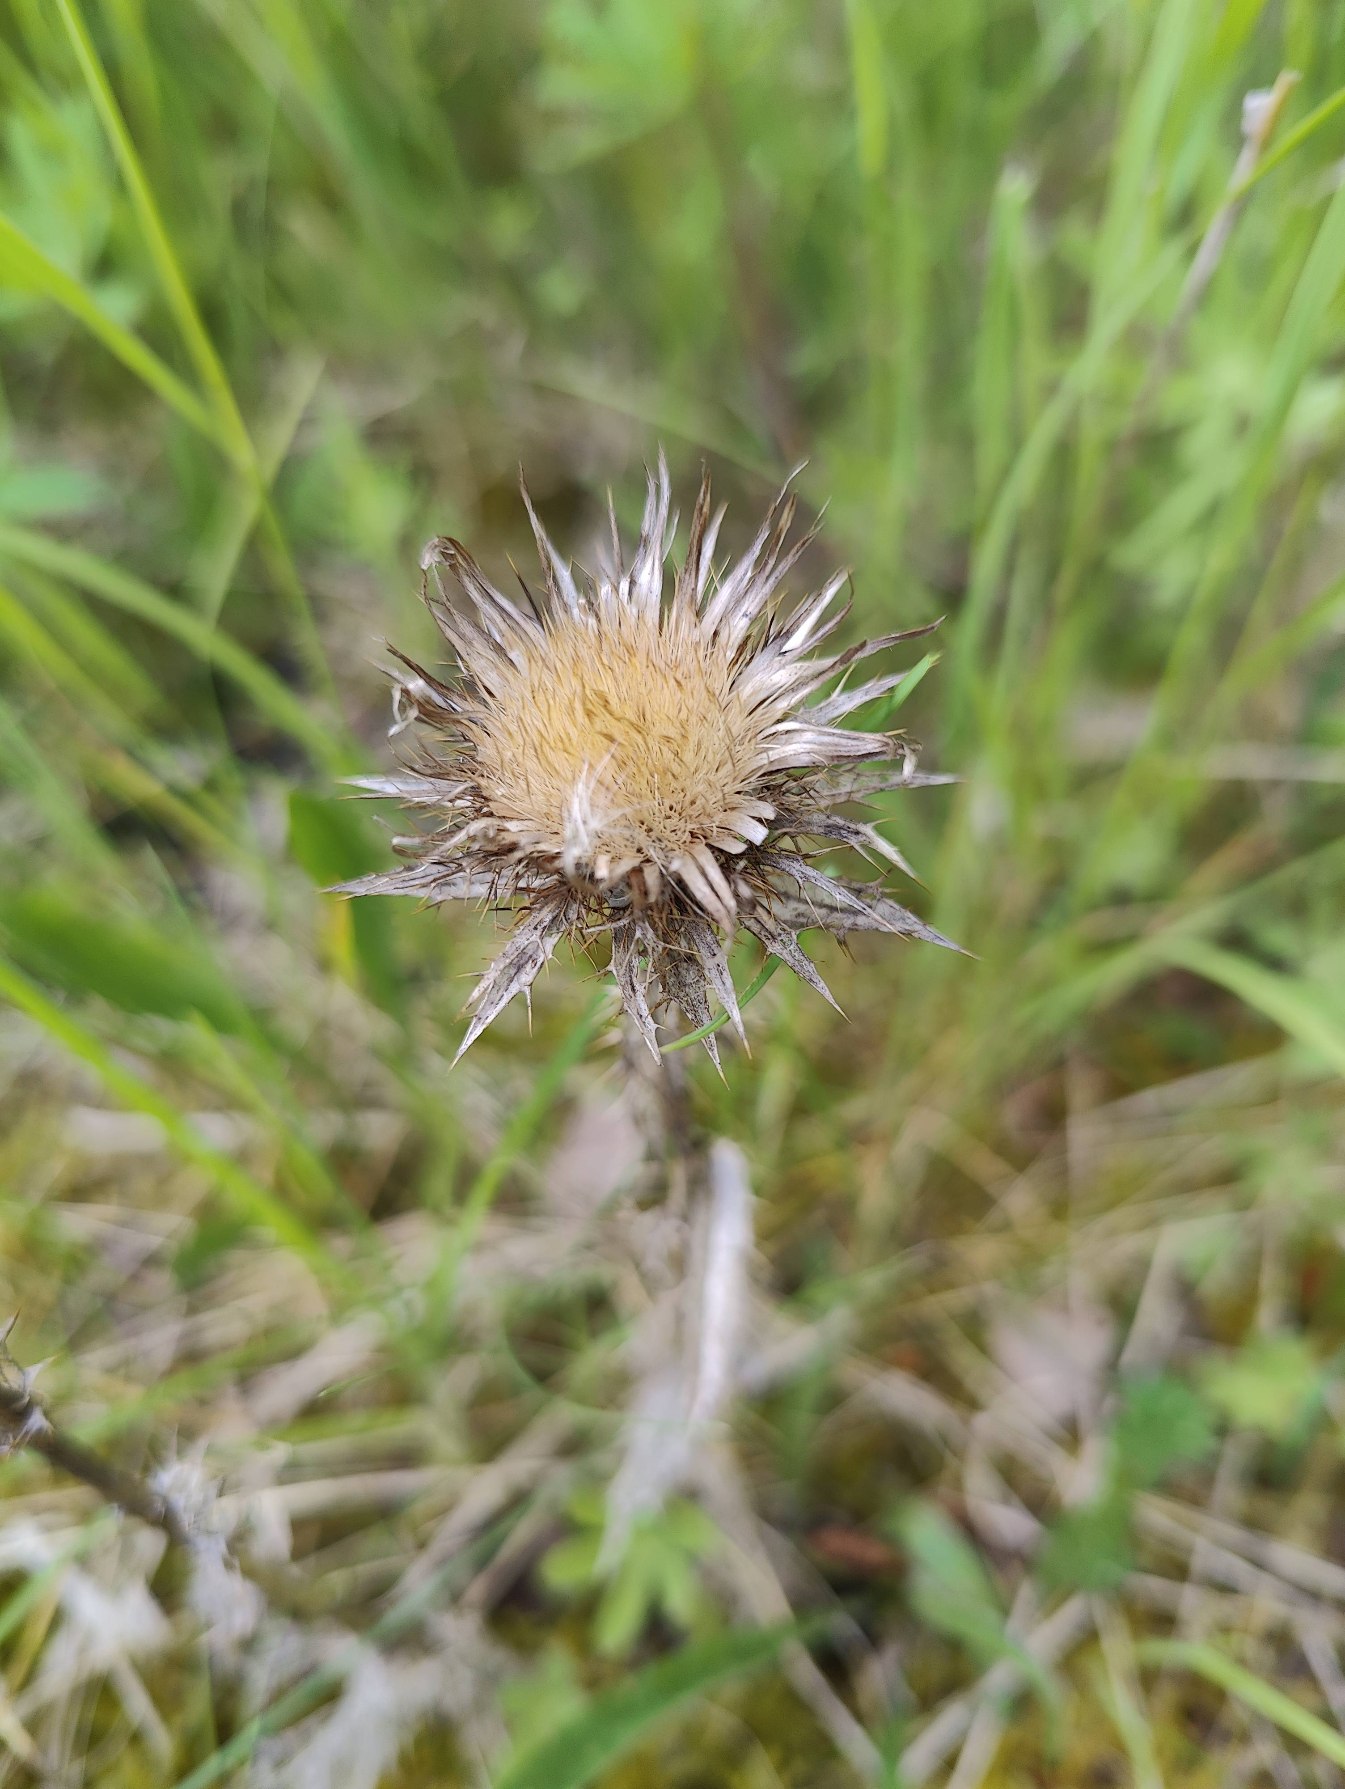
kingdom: Plantae
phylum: Tracheophyta
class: Magnoliopsida
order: Asterales
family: Asteraceae
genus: Carlina
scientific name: Carlina vulgaris
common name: Bakketidsel
